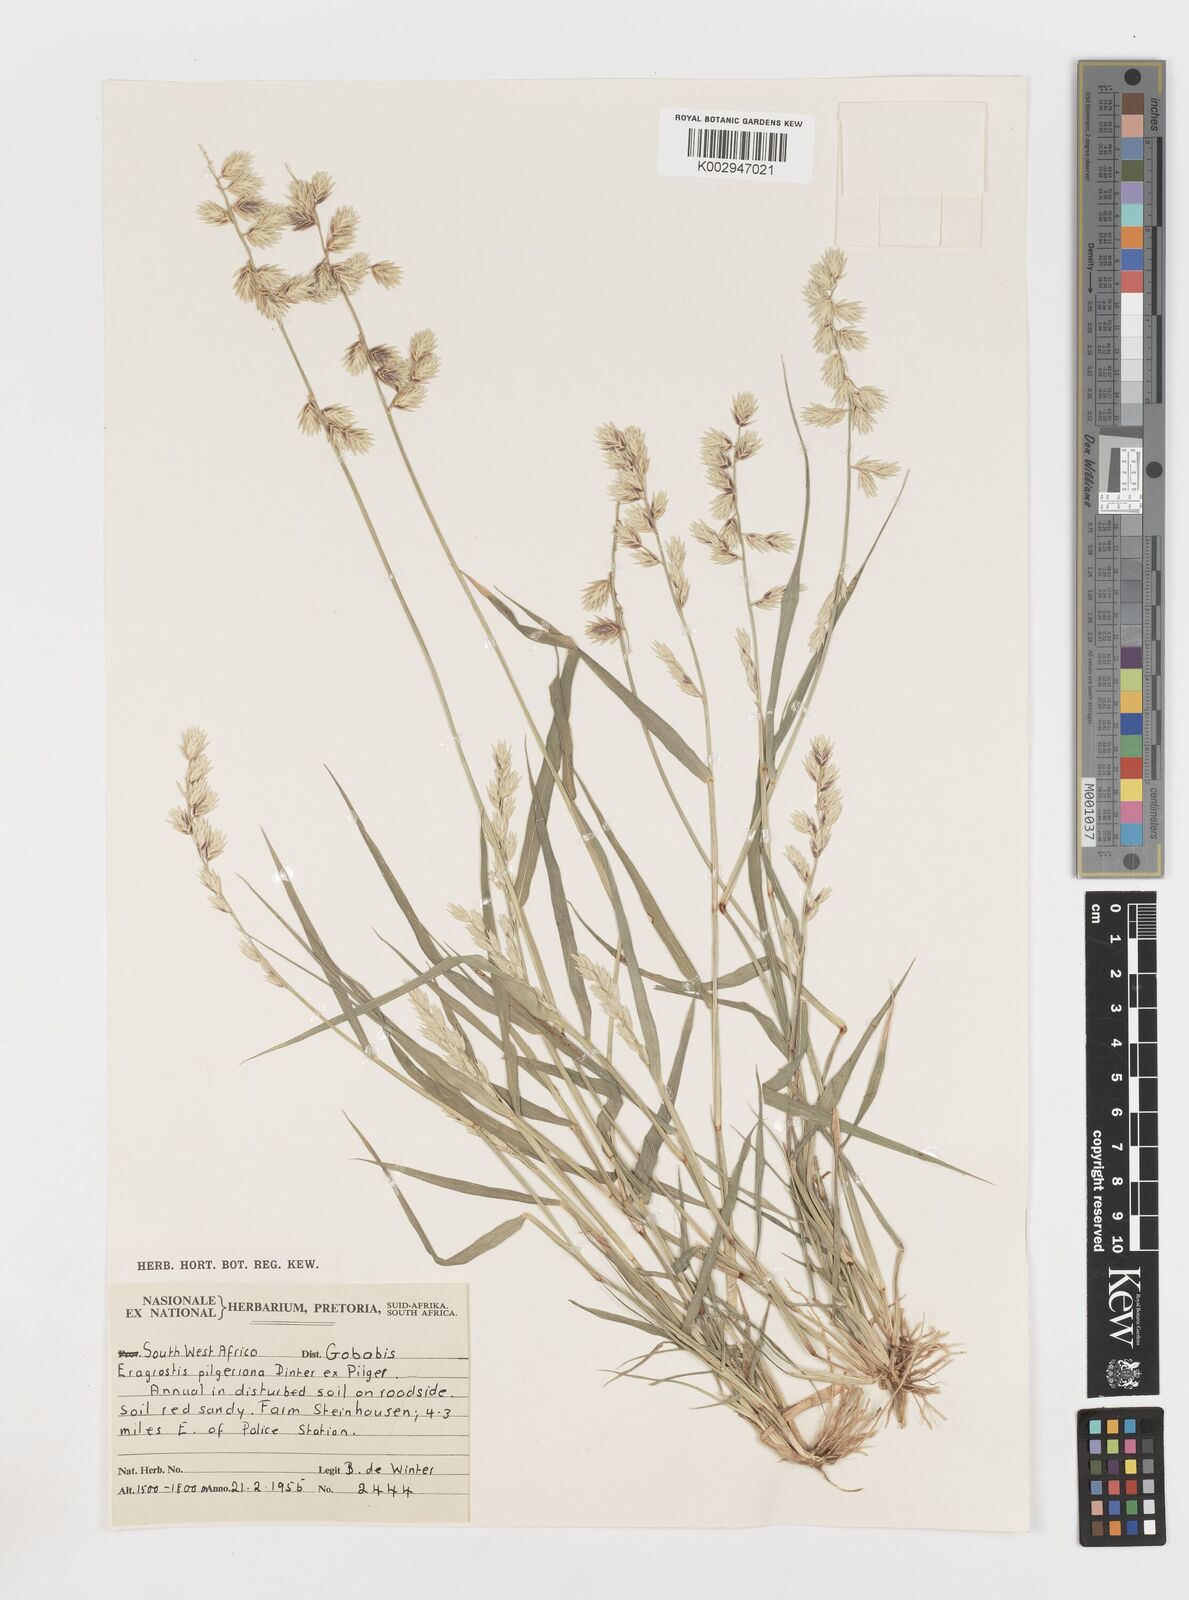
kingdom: Plantae
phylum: Tracheophyta
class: Liliopsida
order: Poales
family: Poaceae
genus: Eragrostis
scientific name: Eragrostis pilgeriana
